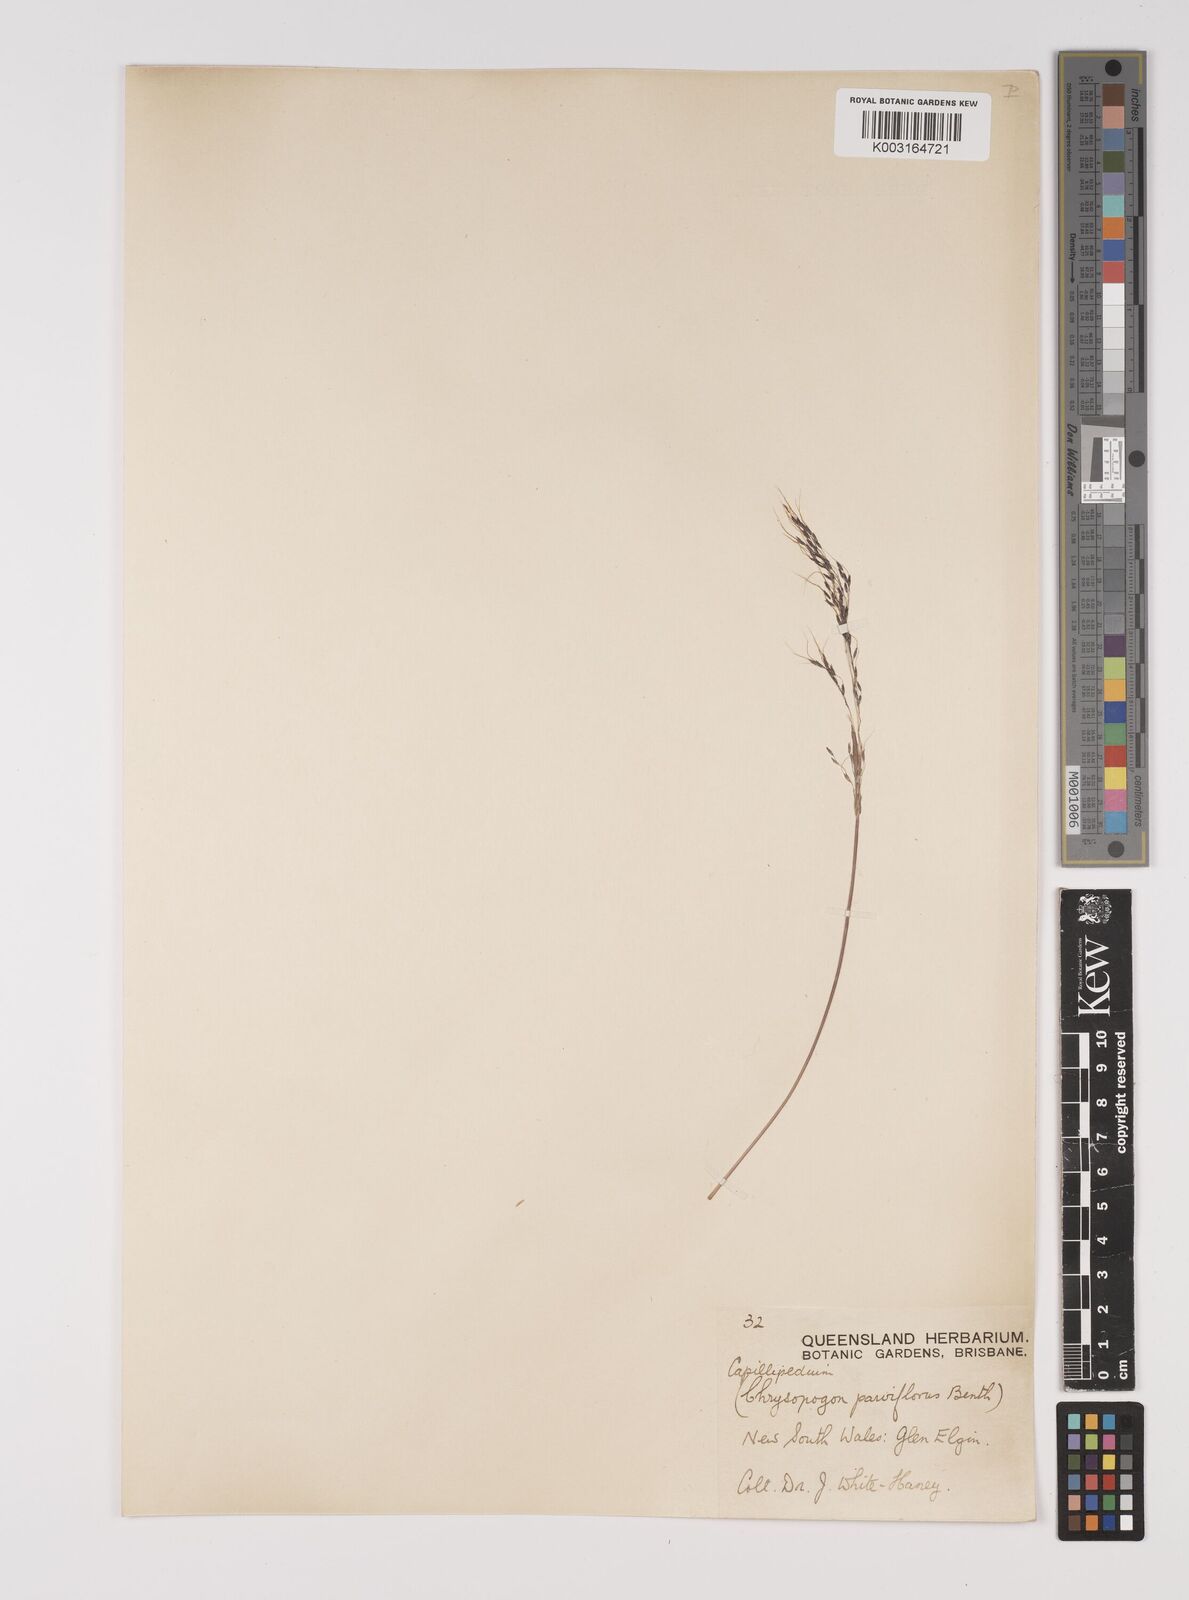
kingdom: Plantae
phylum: Tracheophyta
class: Liliopsida
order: Poales
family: Poaceae
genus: Capillipedium
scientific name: Capillipedium parviflorum
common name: Golden-beard
